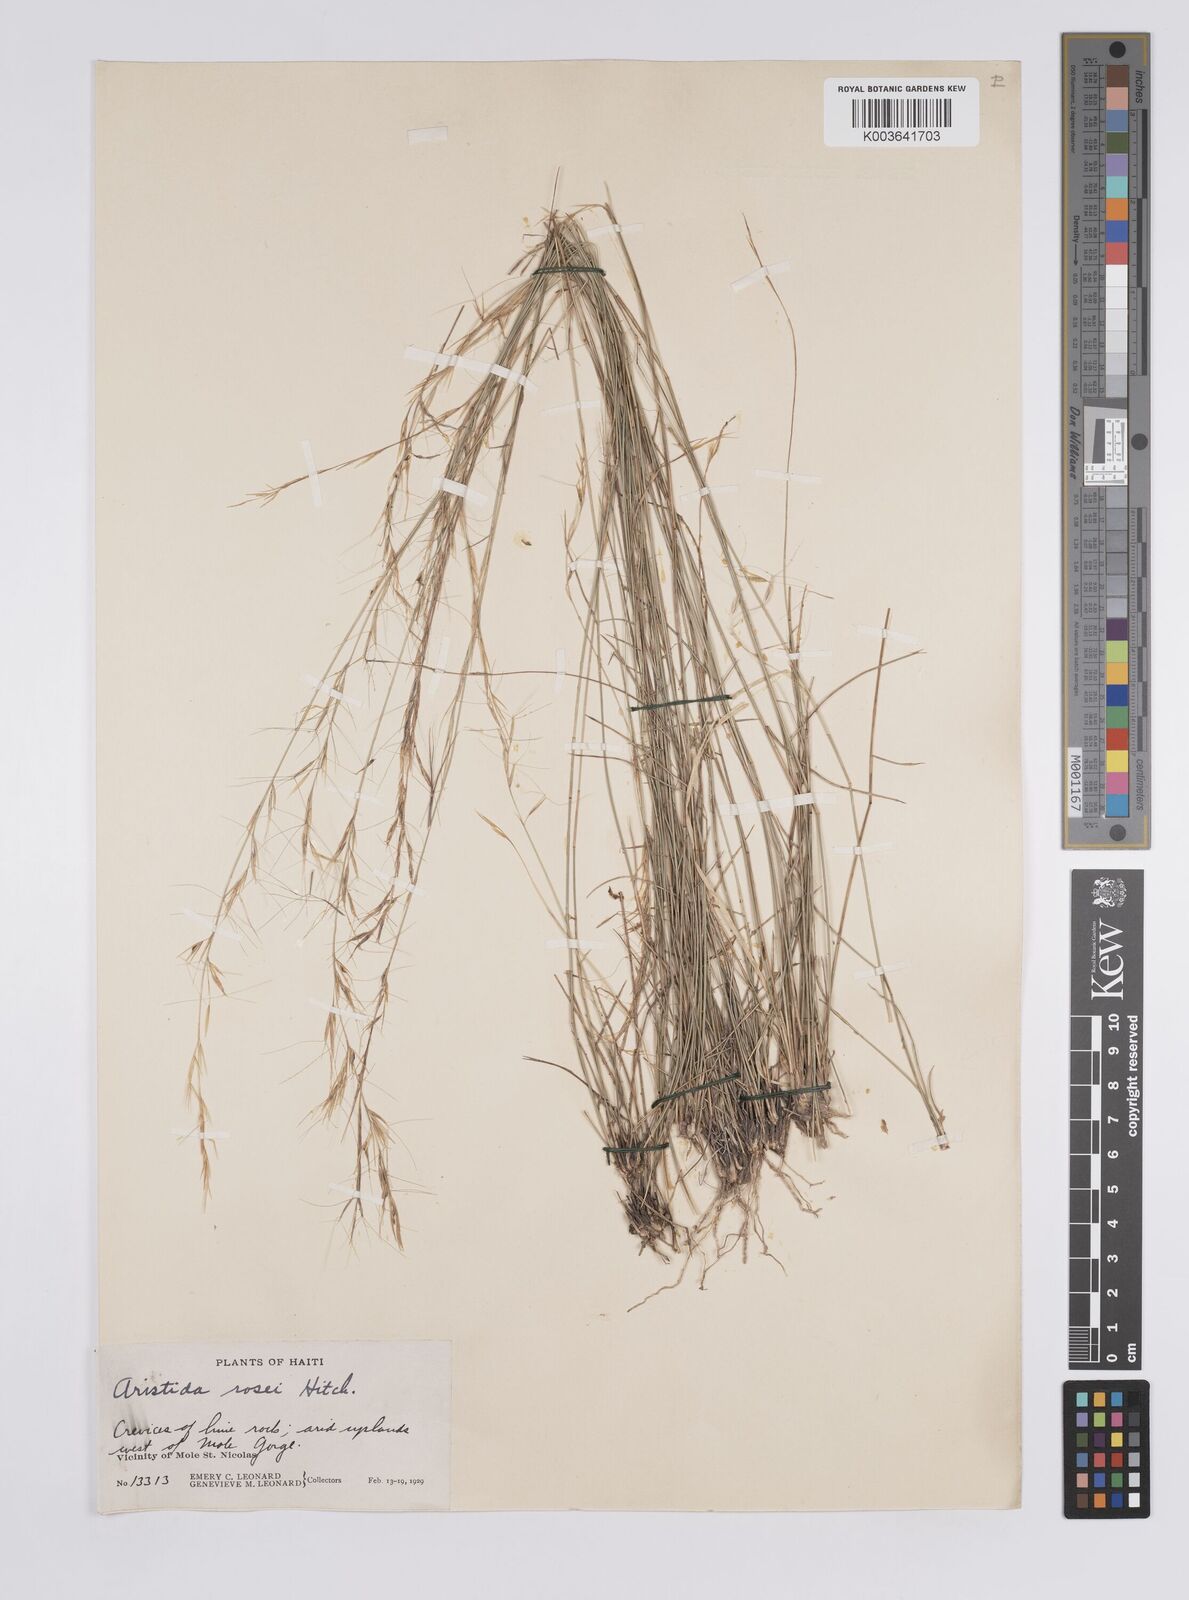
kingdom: Plantae
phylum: Tracheophyta
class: Liliopsida
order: Poales
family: Poaceae
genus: Aristida
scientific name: Aristida rosei
